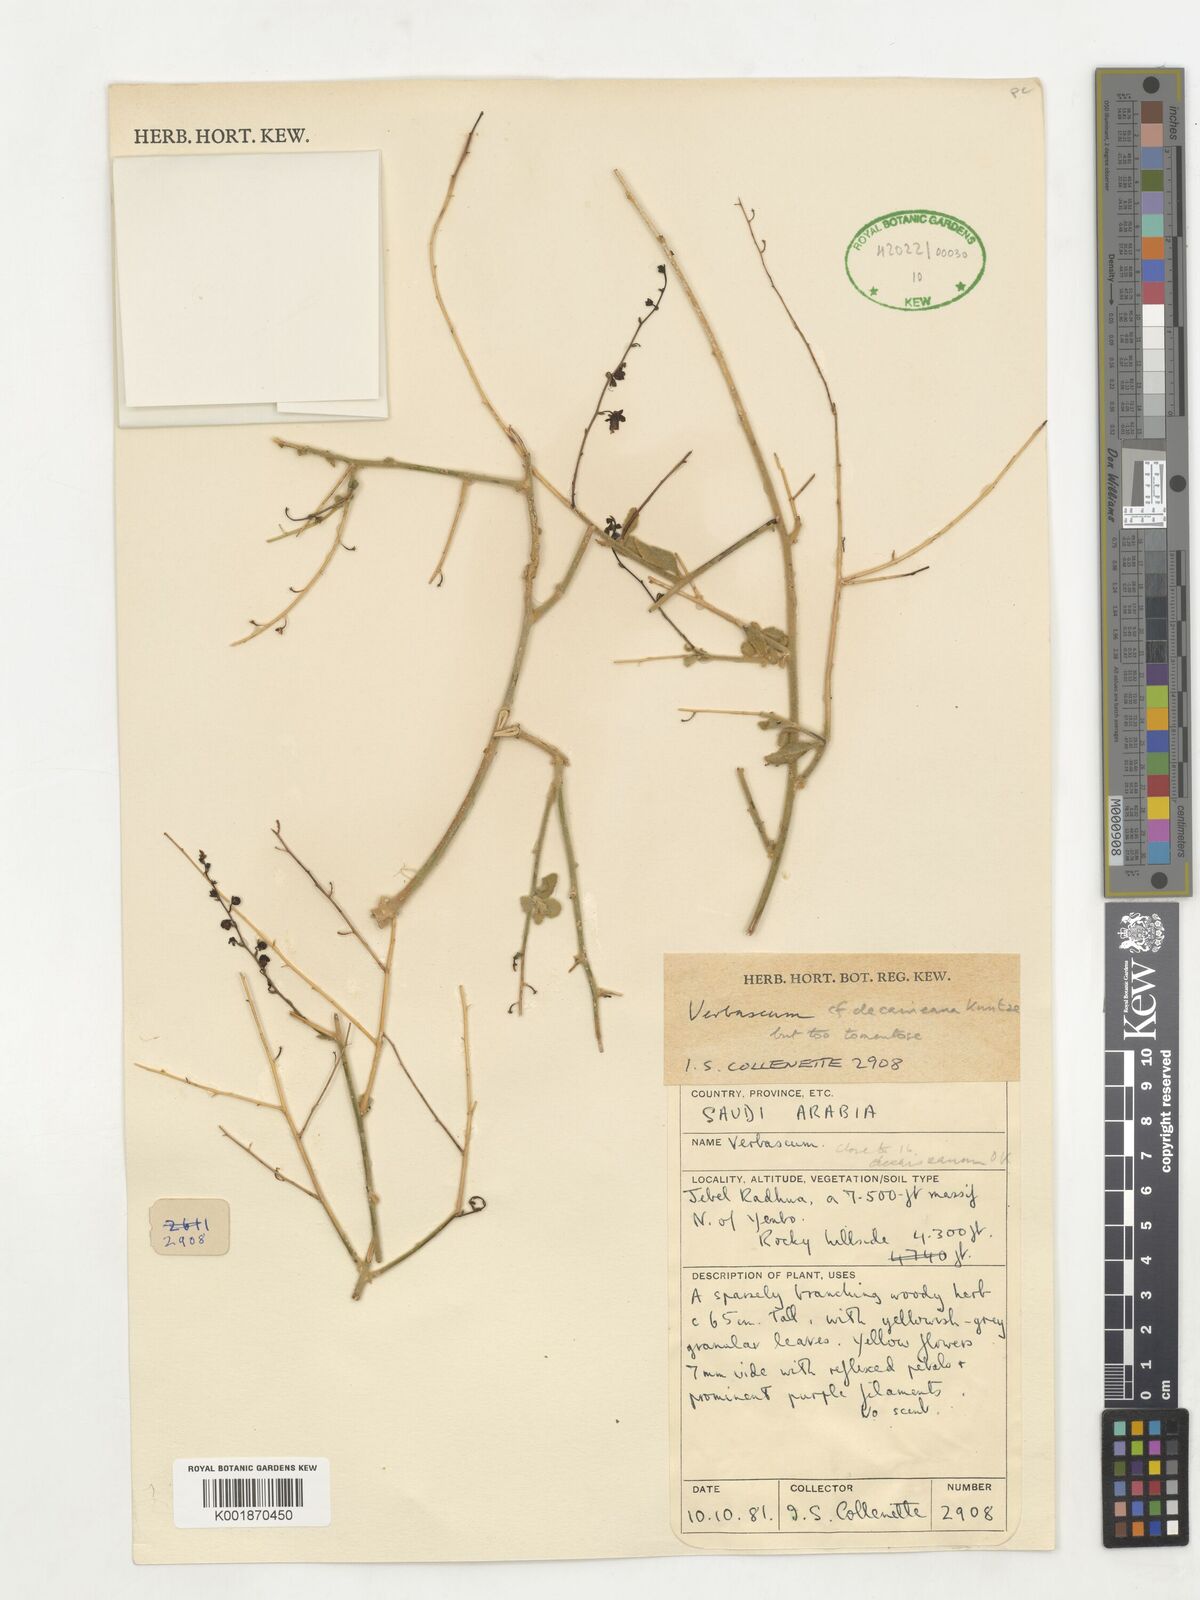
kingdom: Plantae
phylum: Tracheophyta
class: Magnoliopsida
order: Lamiales
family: Scrophulariaceae
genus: Verbascum
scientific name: Verbascum decaisneanum
